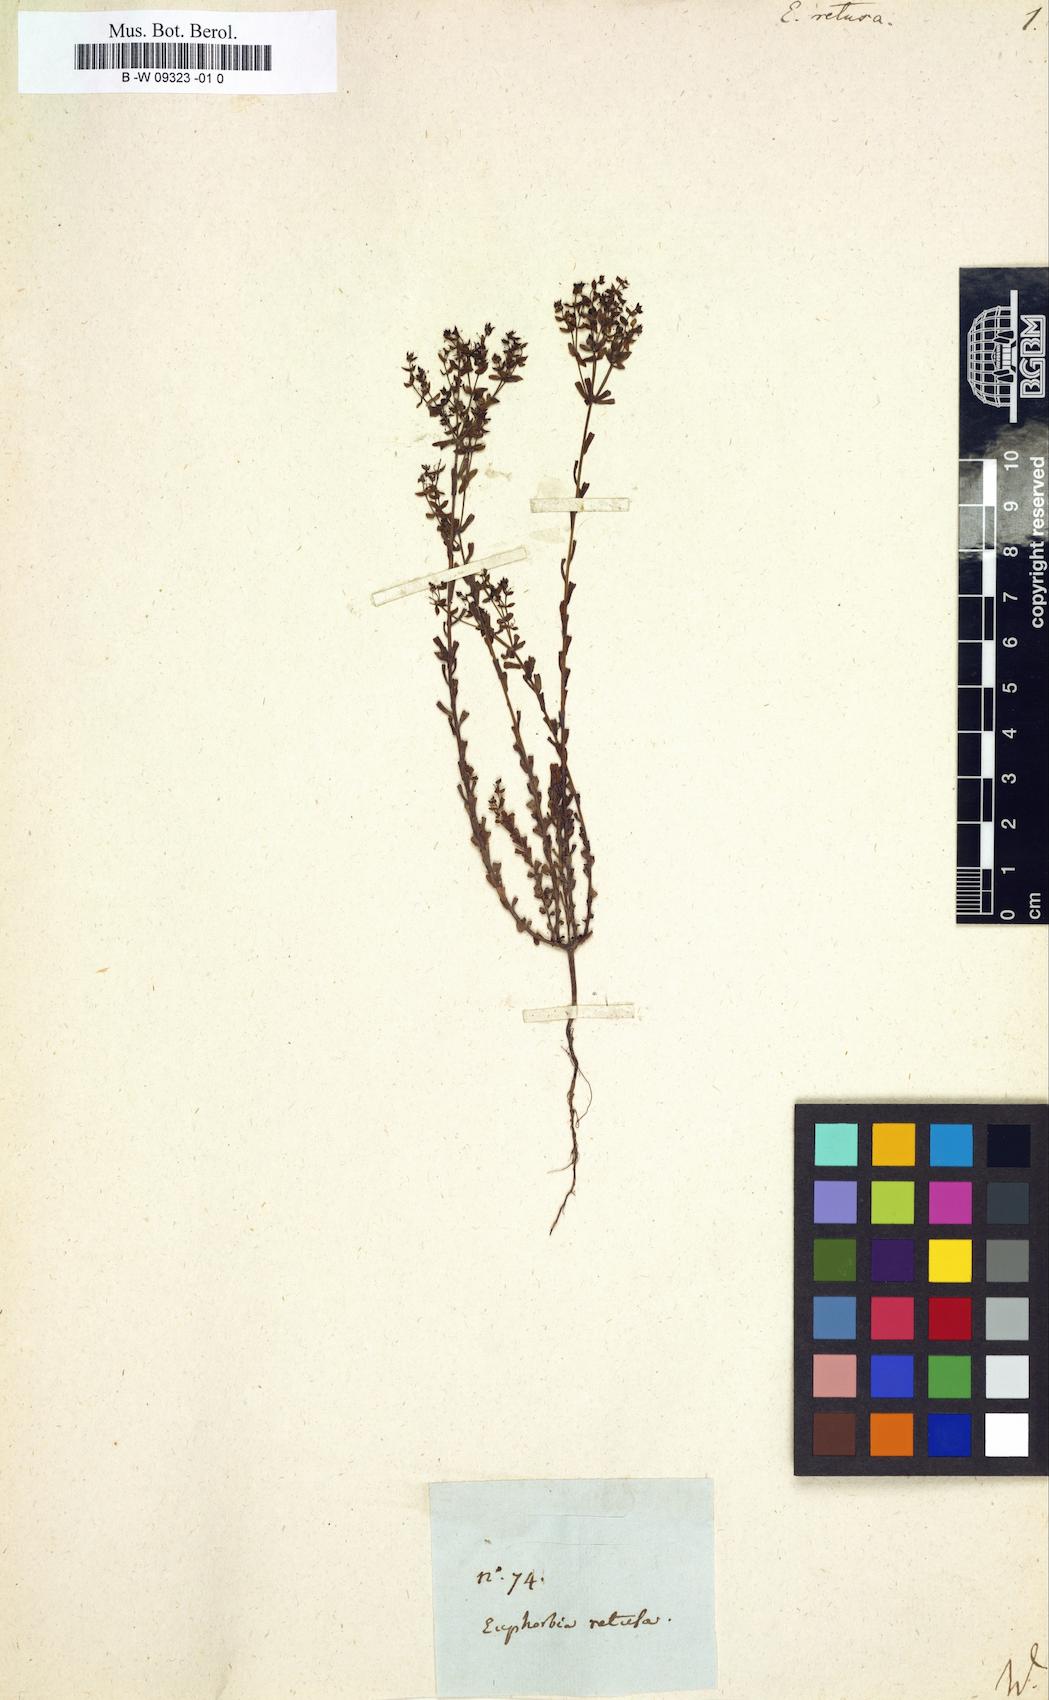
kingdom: Plantae
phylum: Tracheophyta
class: Magnoliopsida
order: Malpighiales
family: Euphorbiaceae
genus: Euphorbia
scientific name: Euphorbia retusa
